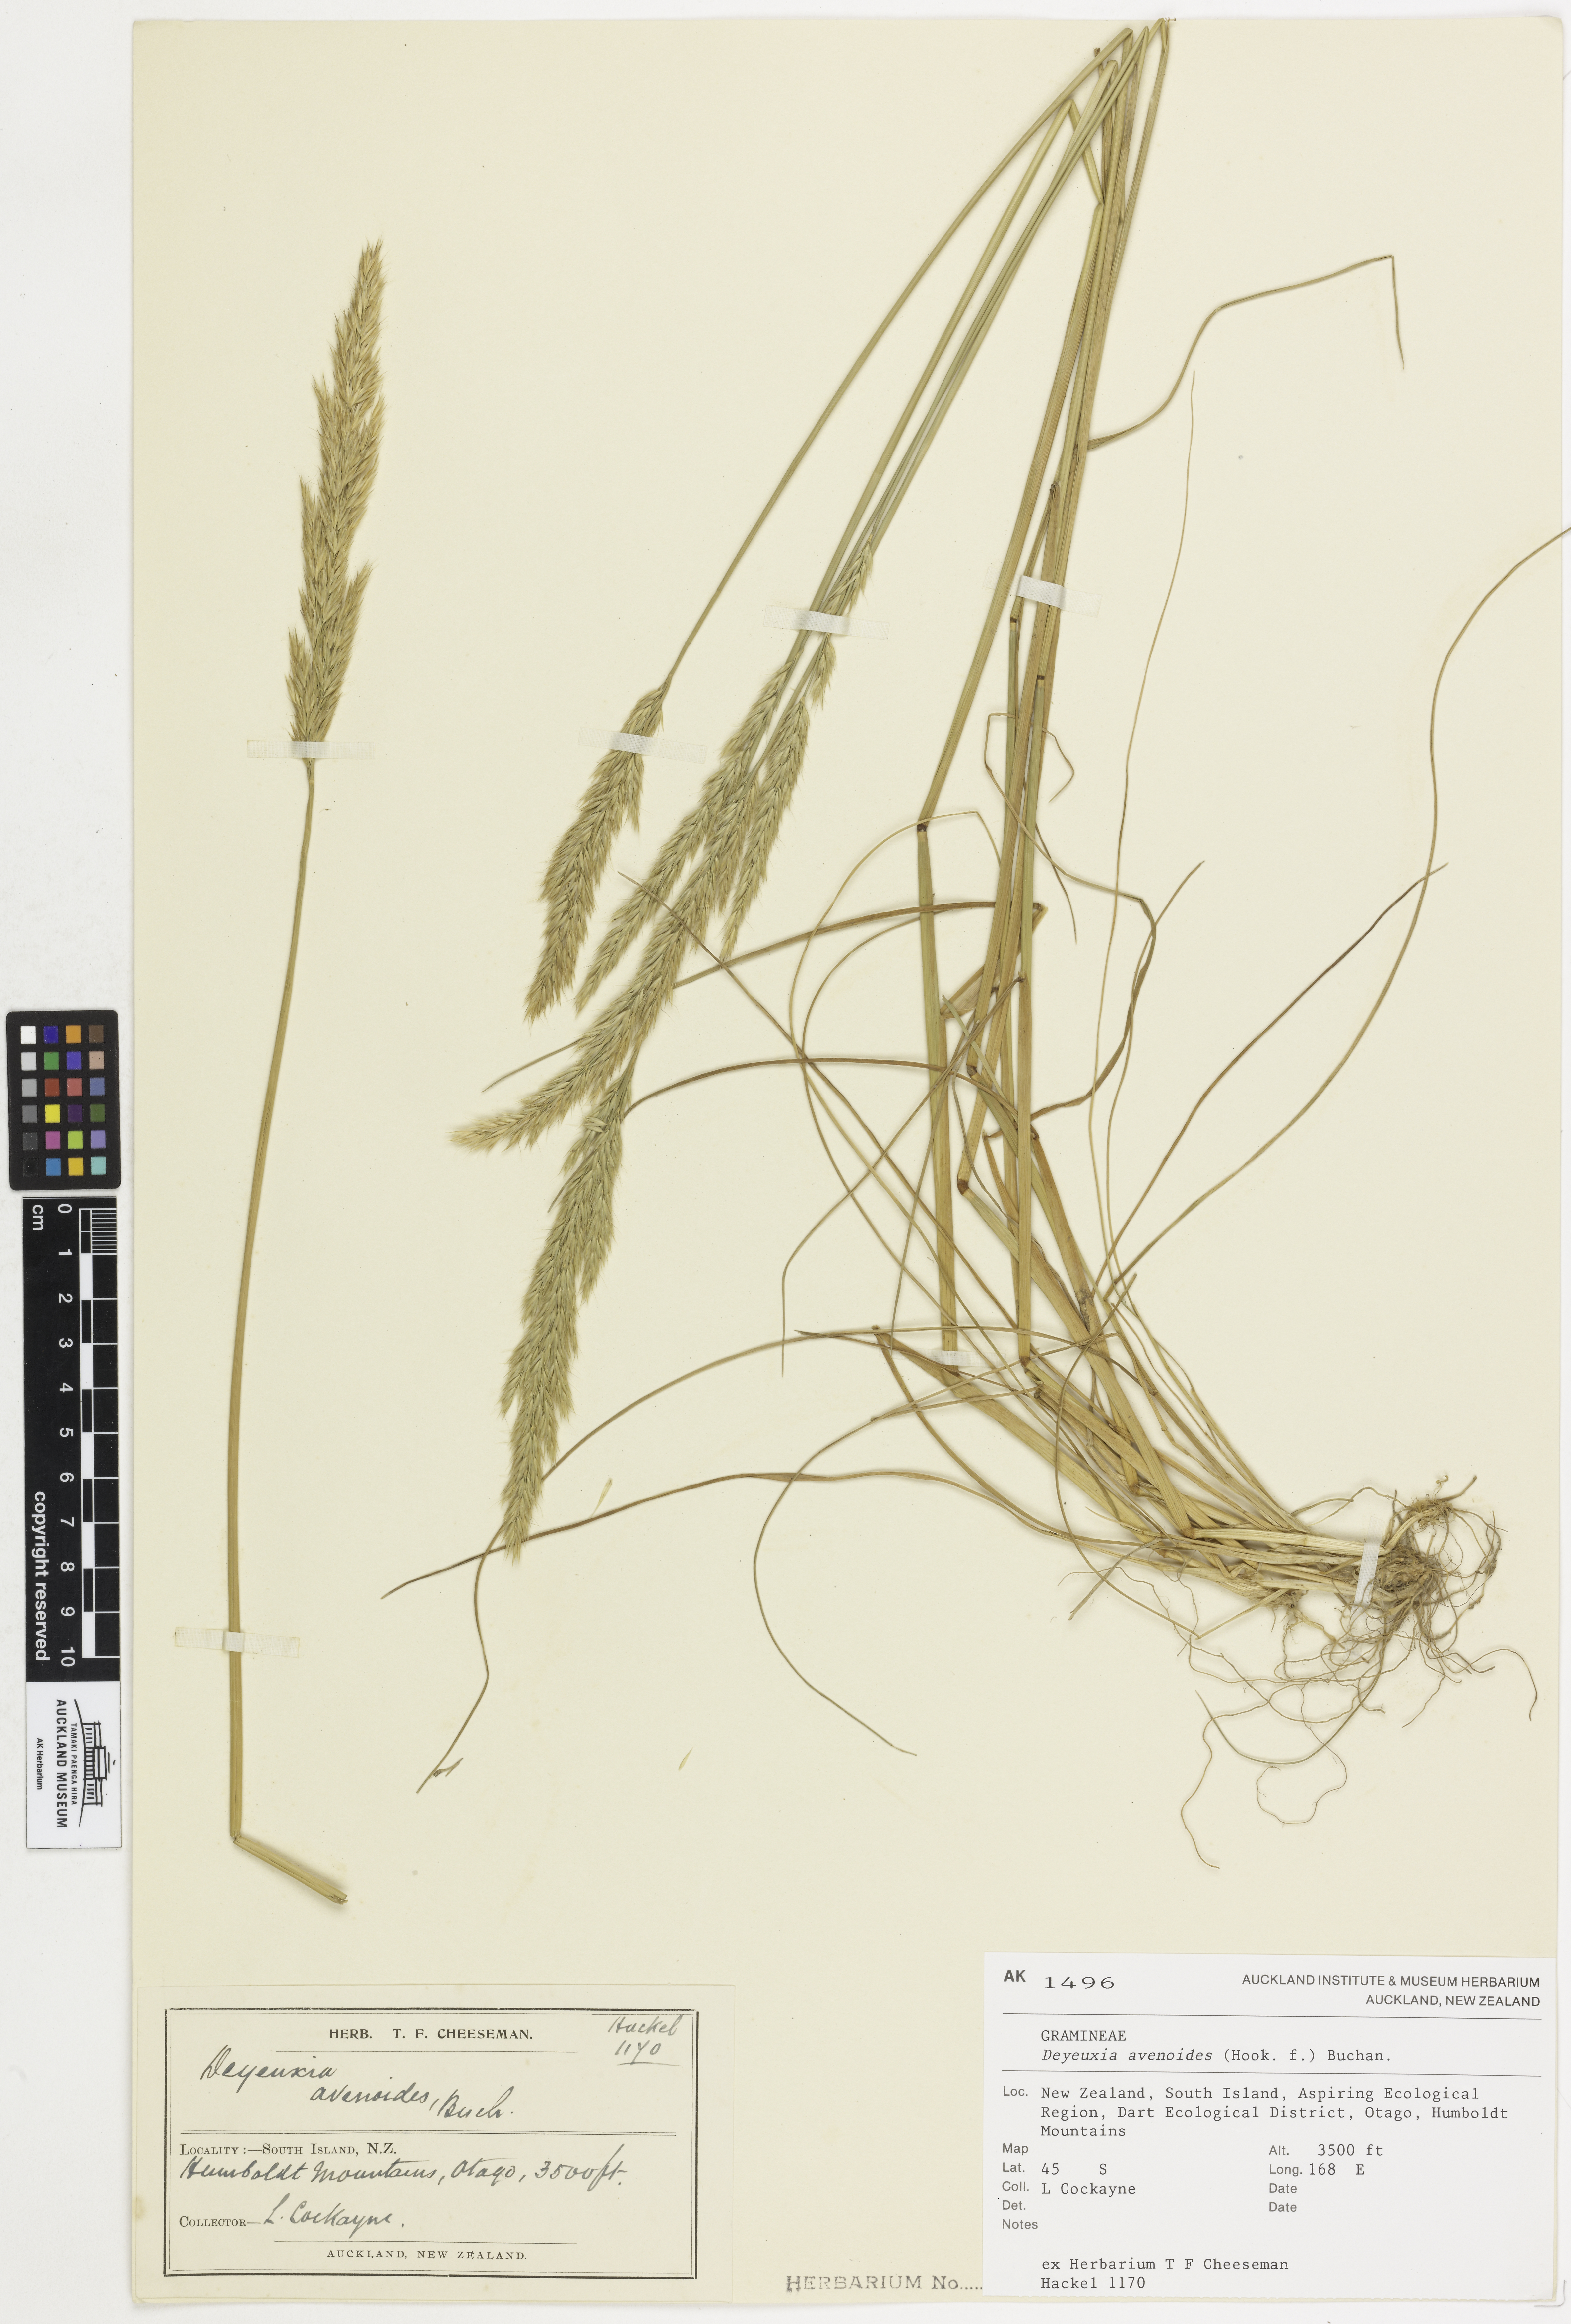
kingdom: Plantae
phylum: Tracheophyta
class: Liliopsida
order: Poales
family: Poaceae
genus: Calamagrostis
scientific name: Calamagrostis avenoides
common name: Mountain oat grass
